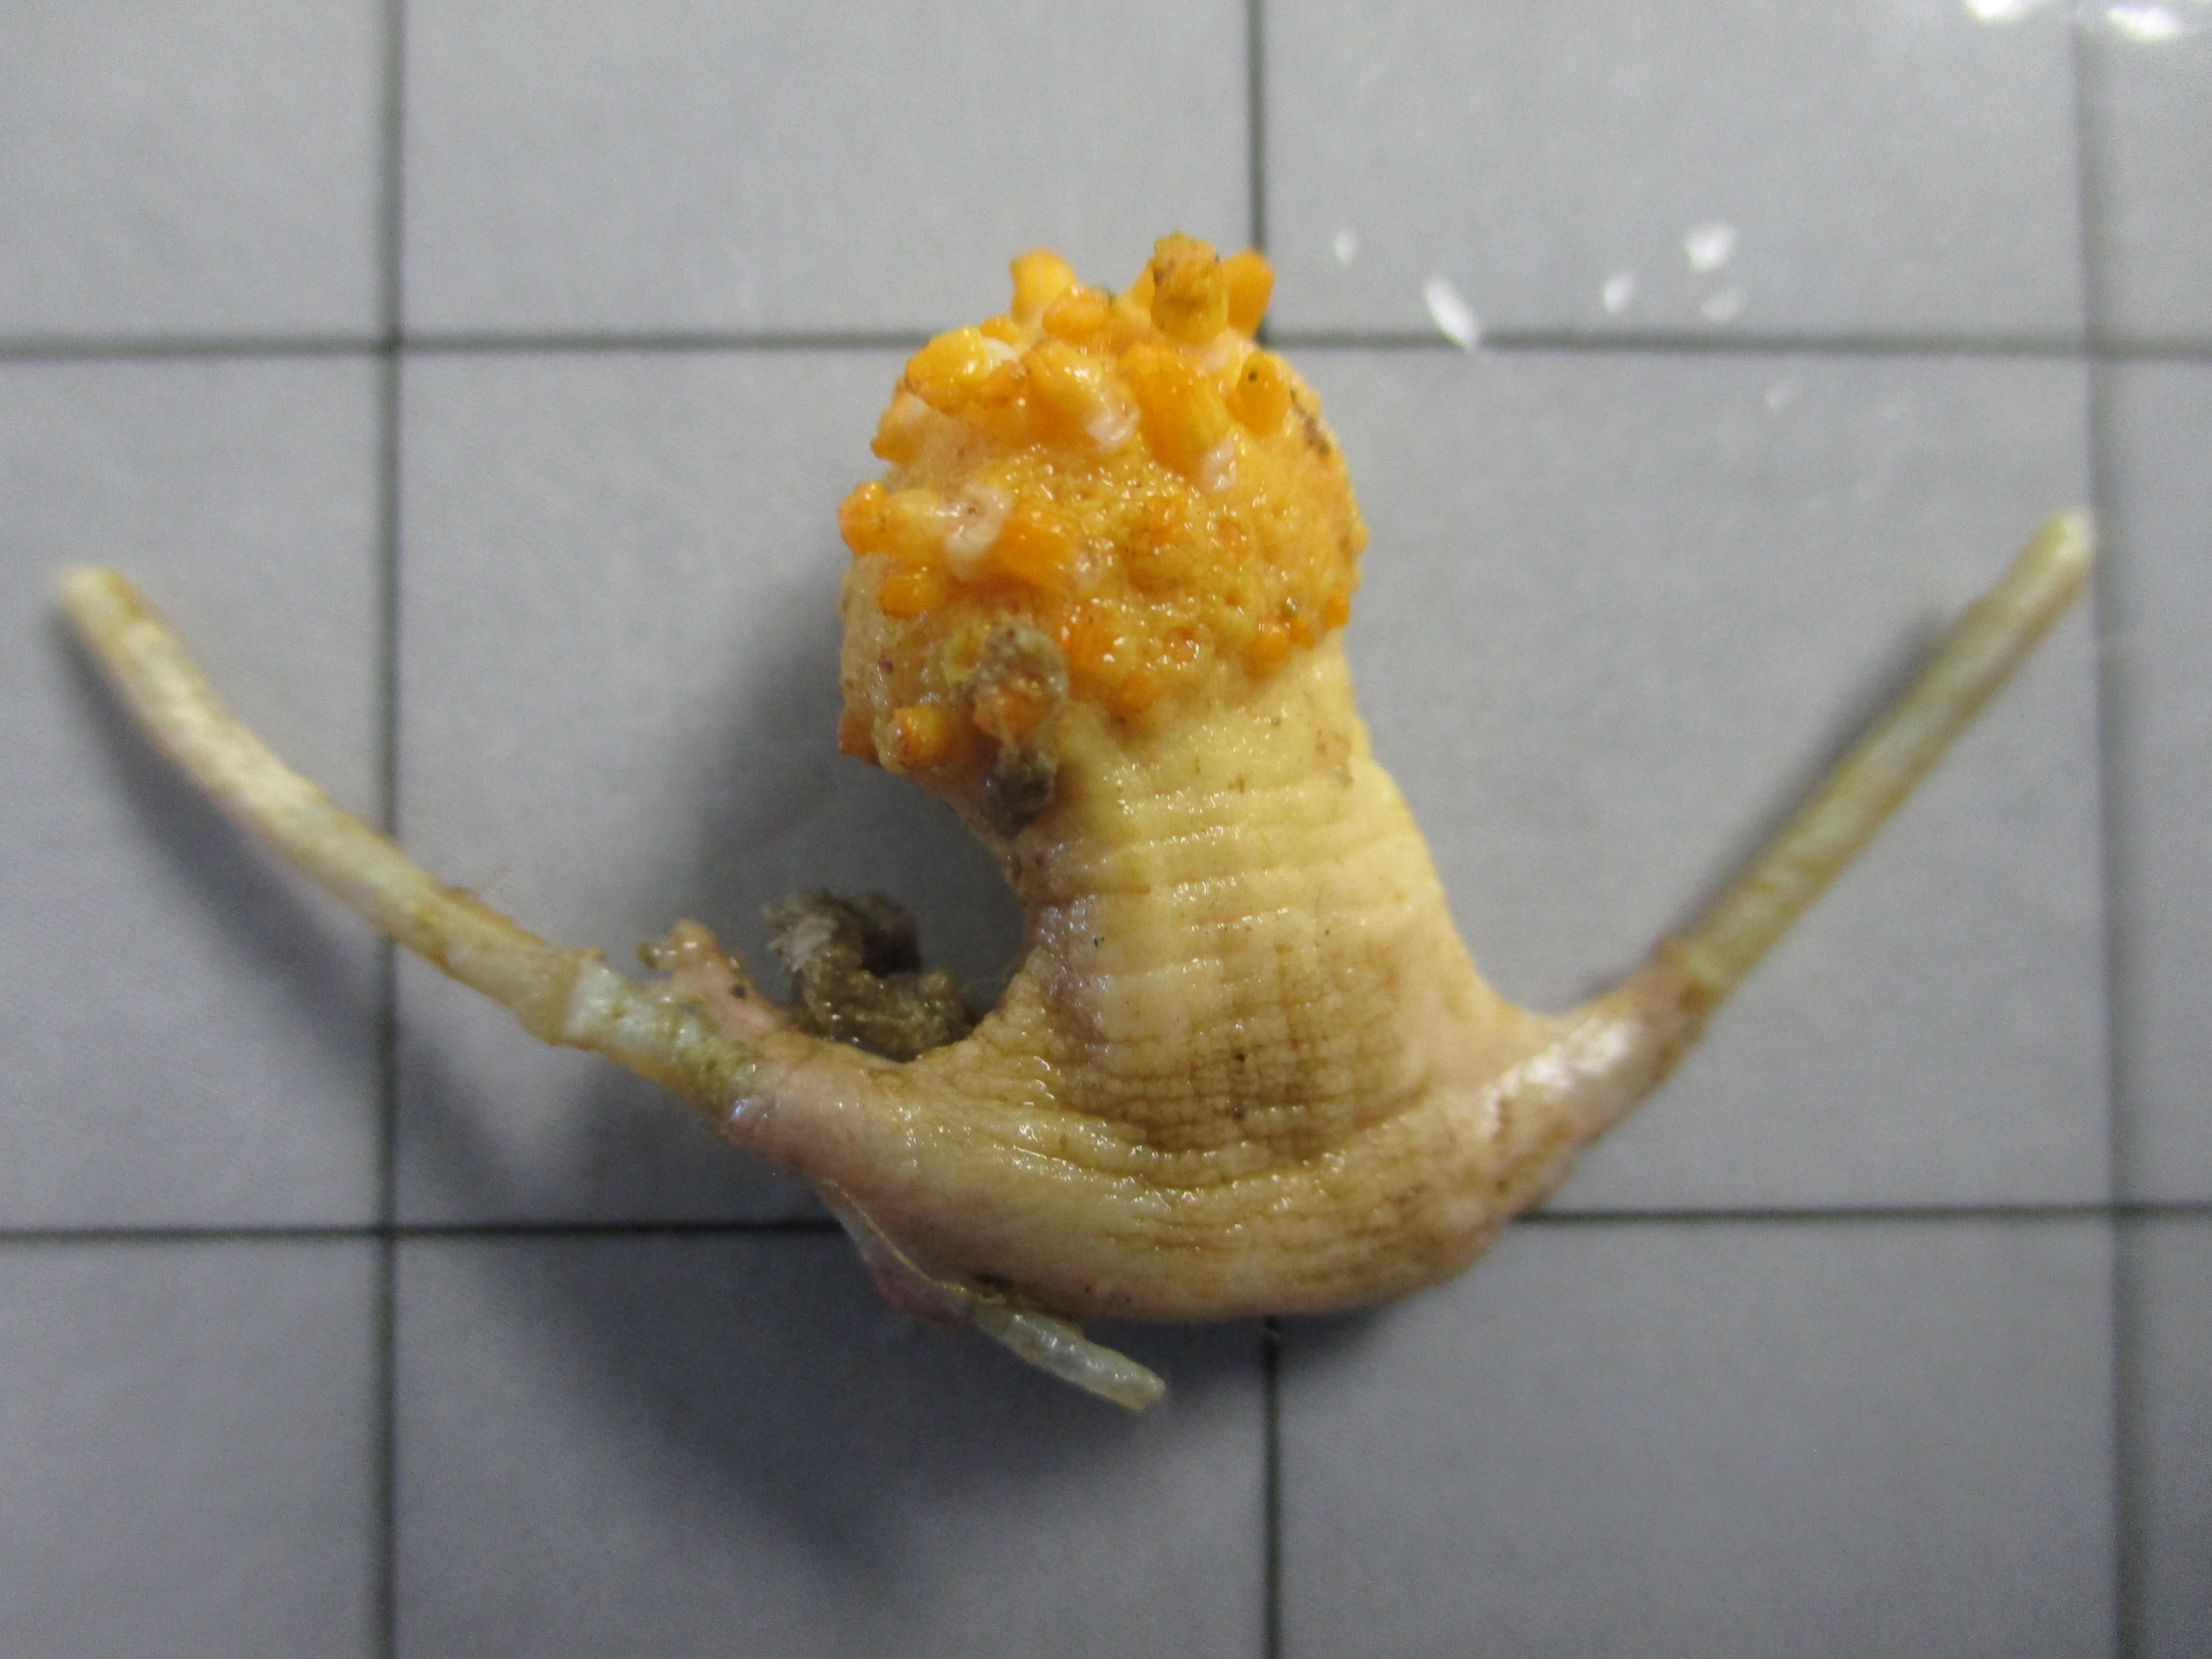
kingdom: Animalia
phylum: Cnidaria
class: Anthozoa
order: Malacalcyonacea
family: Alcyoniidae
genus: Alcyonium
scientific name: Alcyonium variabile
